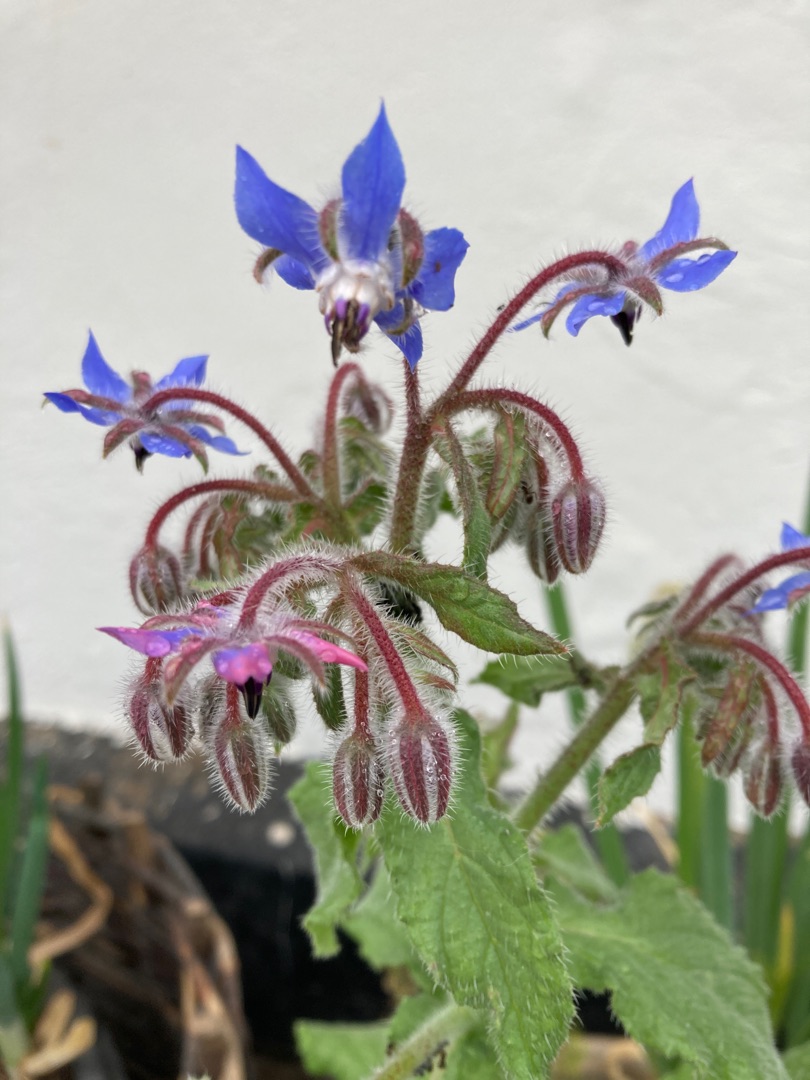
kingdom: Plantae
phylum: Tracheophyta
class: Magnoliopsida
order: Boraginales
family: Boraginaceae
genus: Borago
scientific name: Borago officinalis
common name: Hjulkrone
